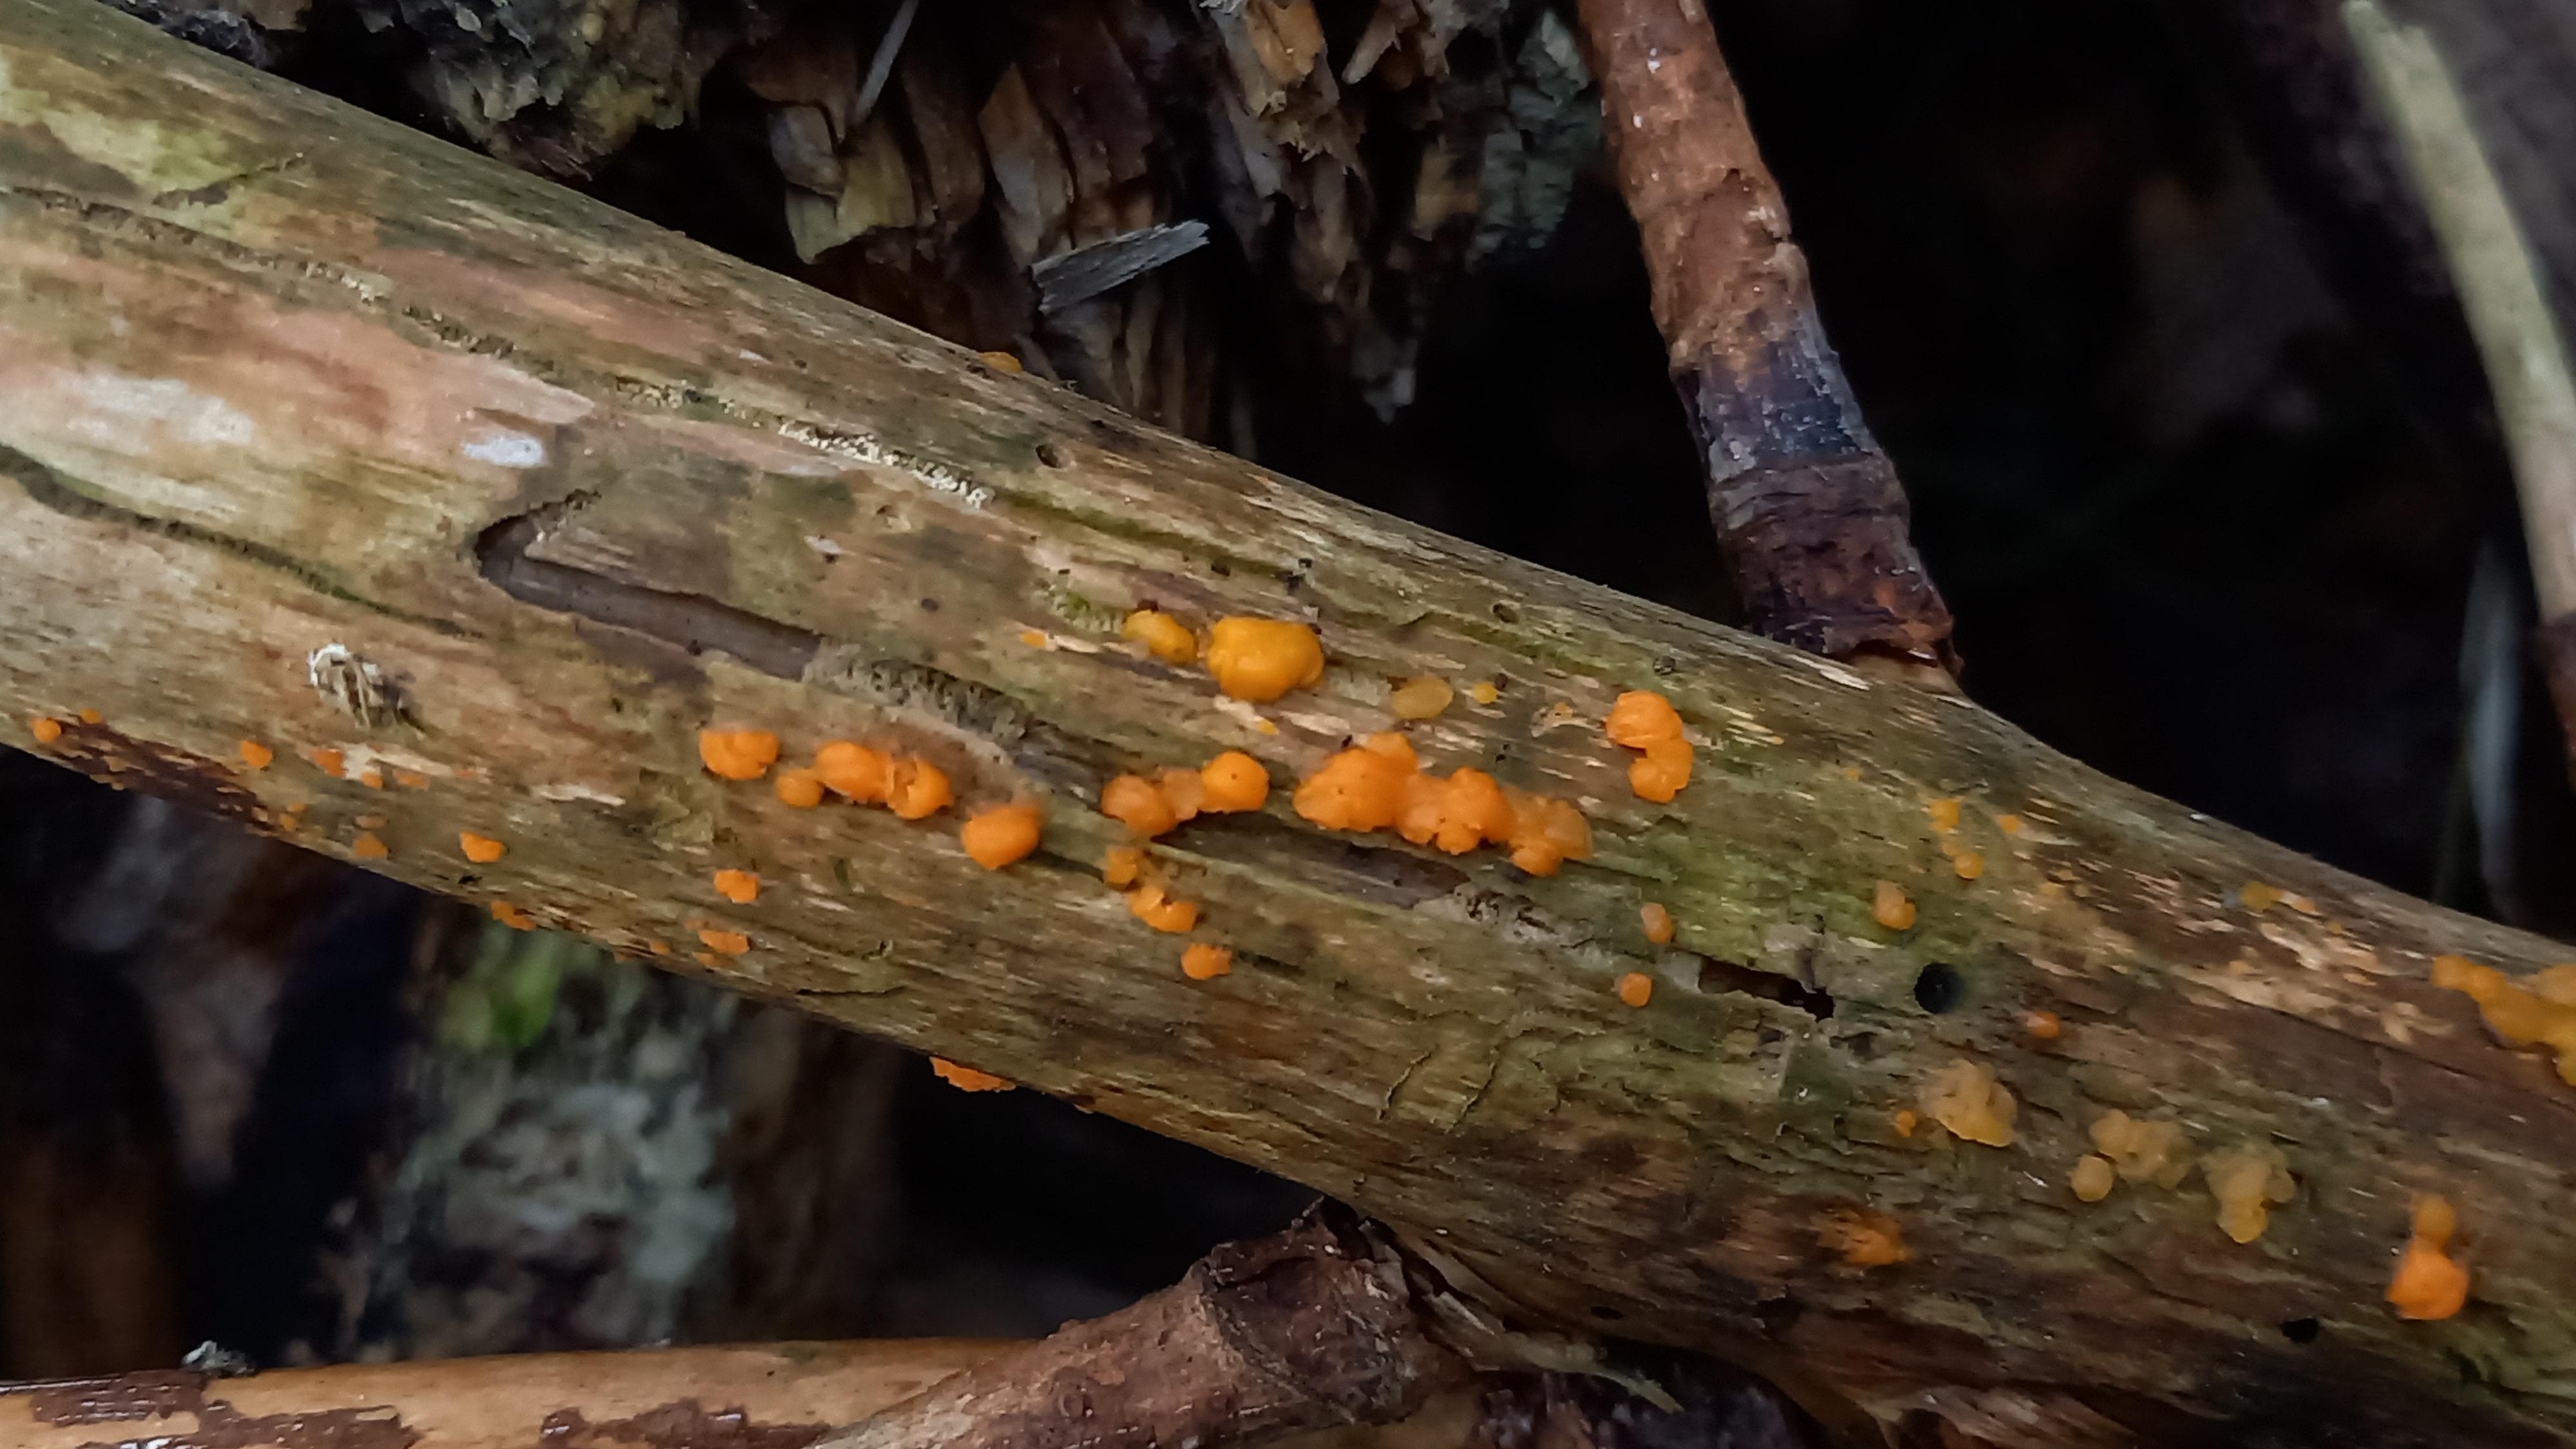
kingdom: Fungi
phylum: Basidiomycota
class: Dacrymycetes
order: Dacrymycetales
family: Dacrymycetaceae
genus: Dacrymyces
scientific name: Dacrymyces stillatus
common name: almindelig tåresvamp
